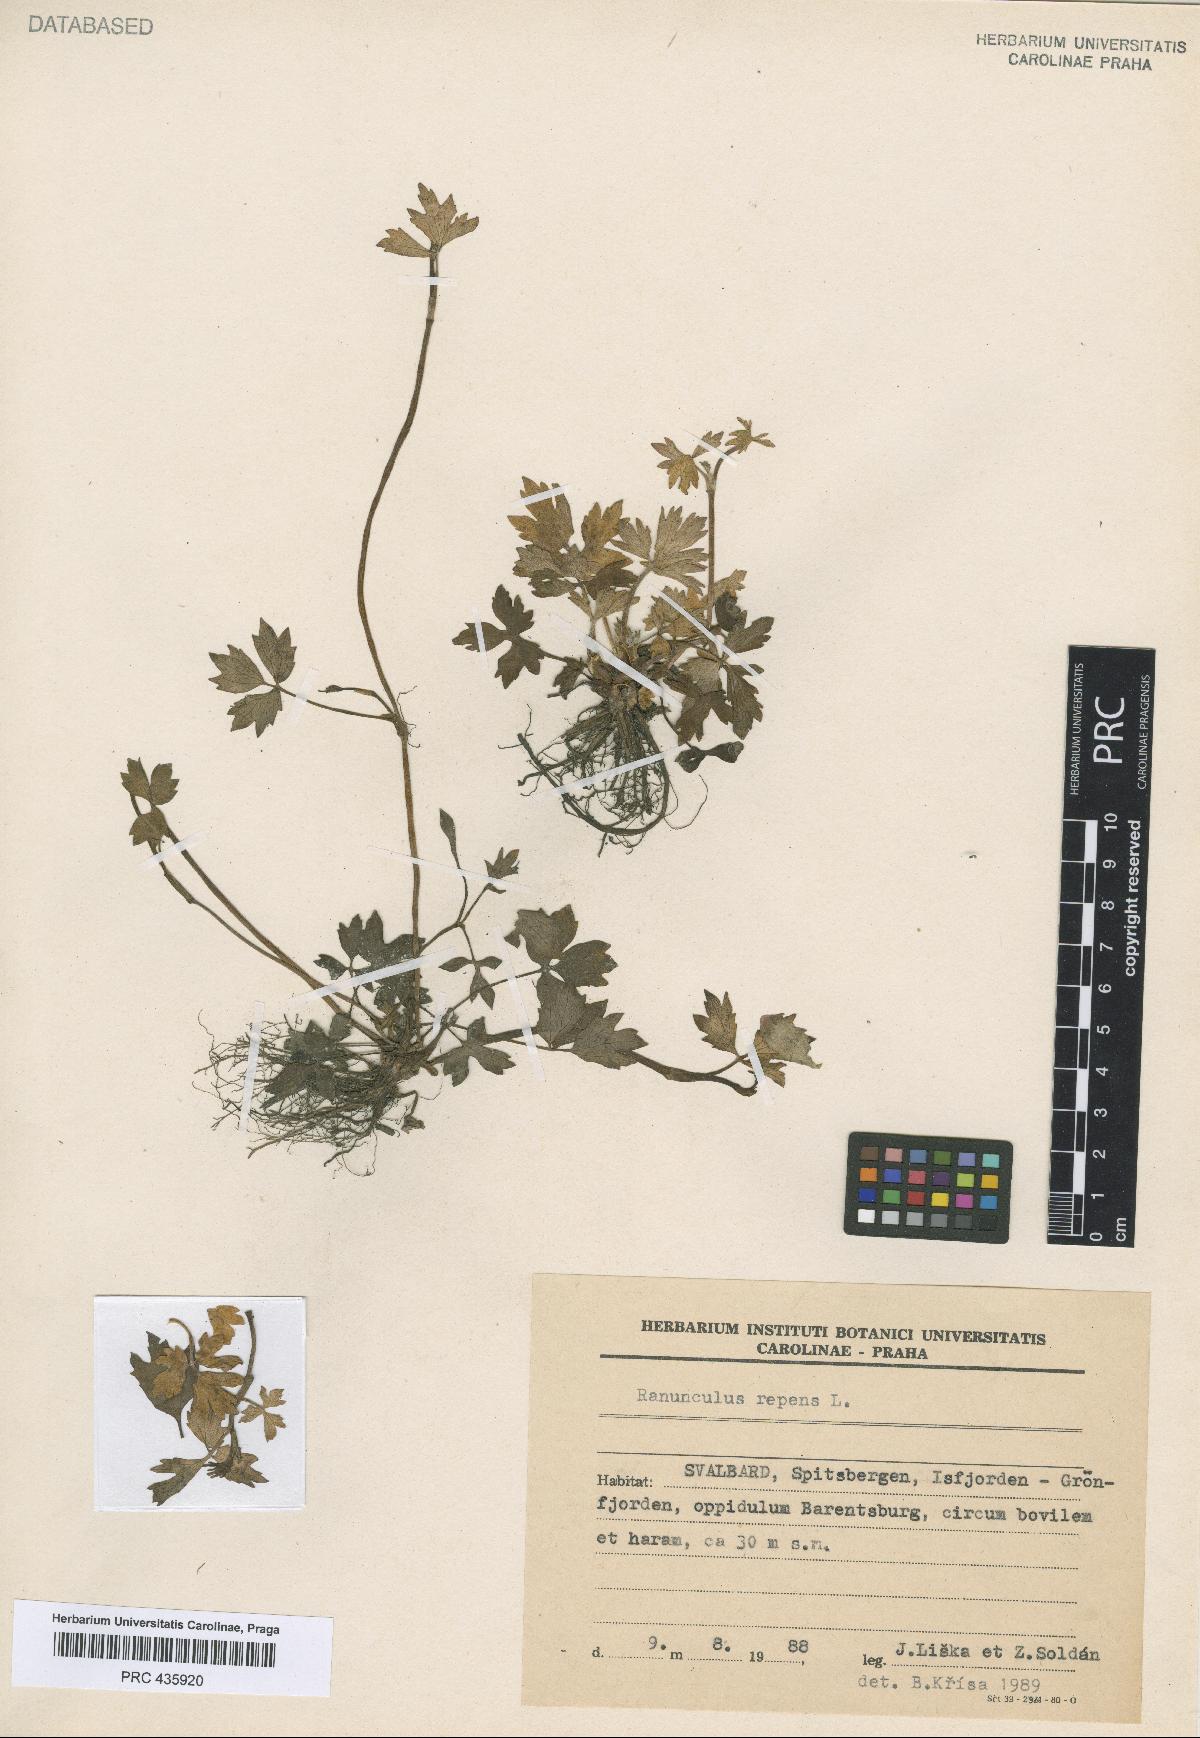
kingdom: Plantae
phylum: Tracheophyta
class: Magnoliopsida
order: Ranunculales
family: Ranunculaceae
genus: Ranunculus
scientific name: Ranunculus repens
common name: Creeping buttercup
